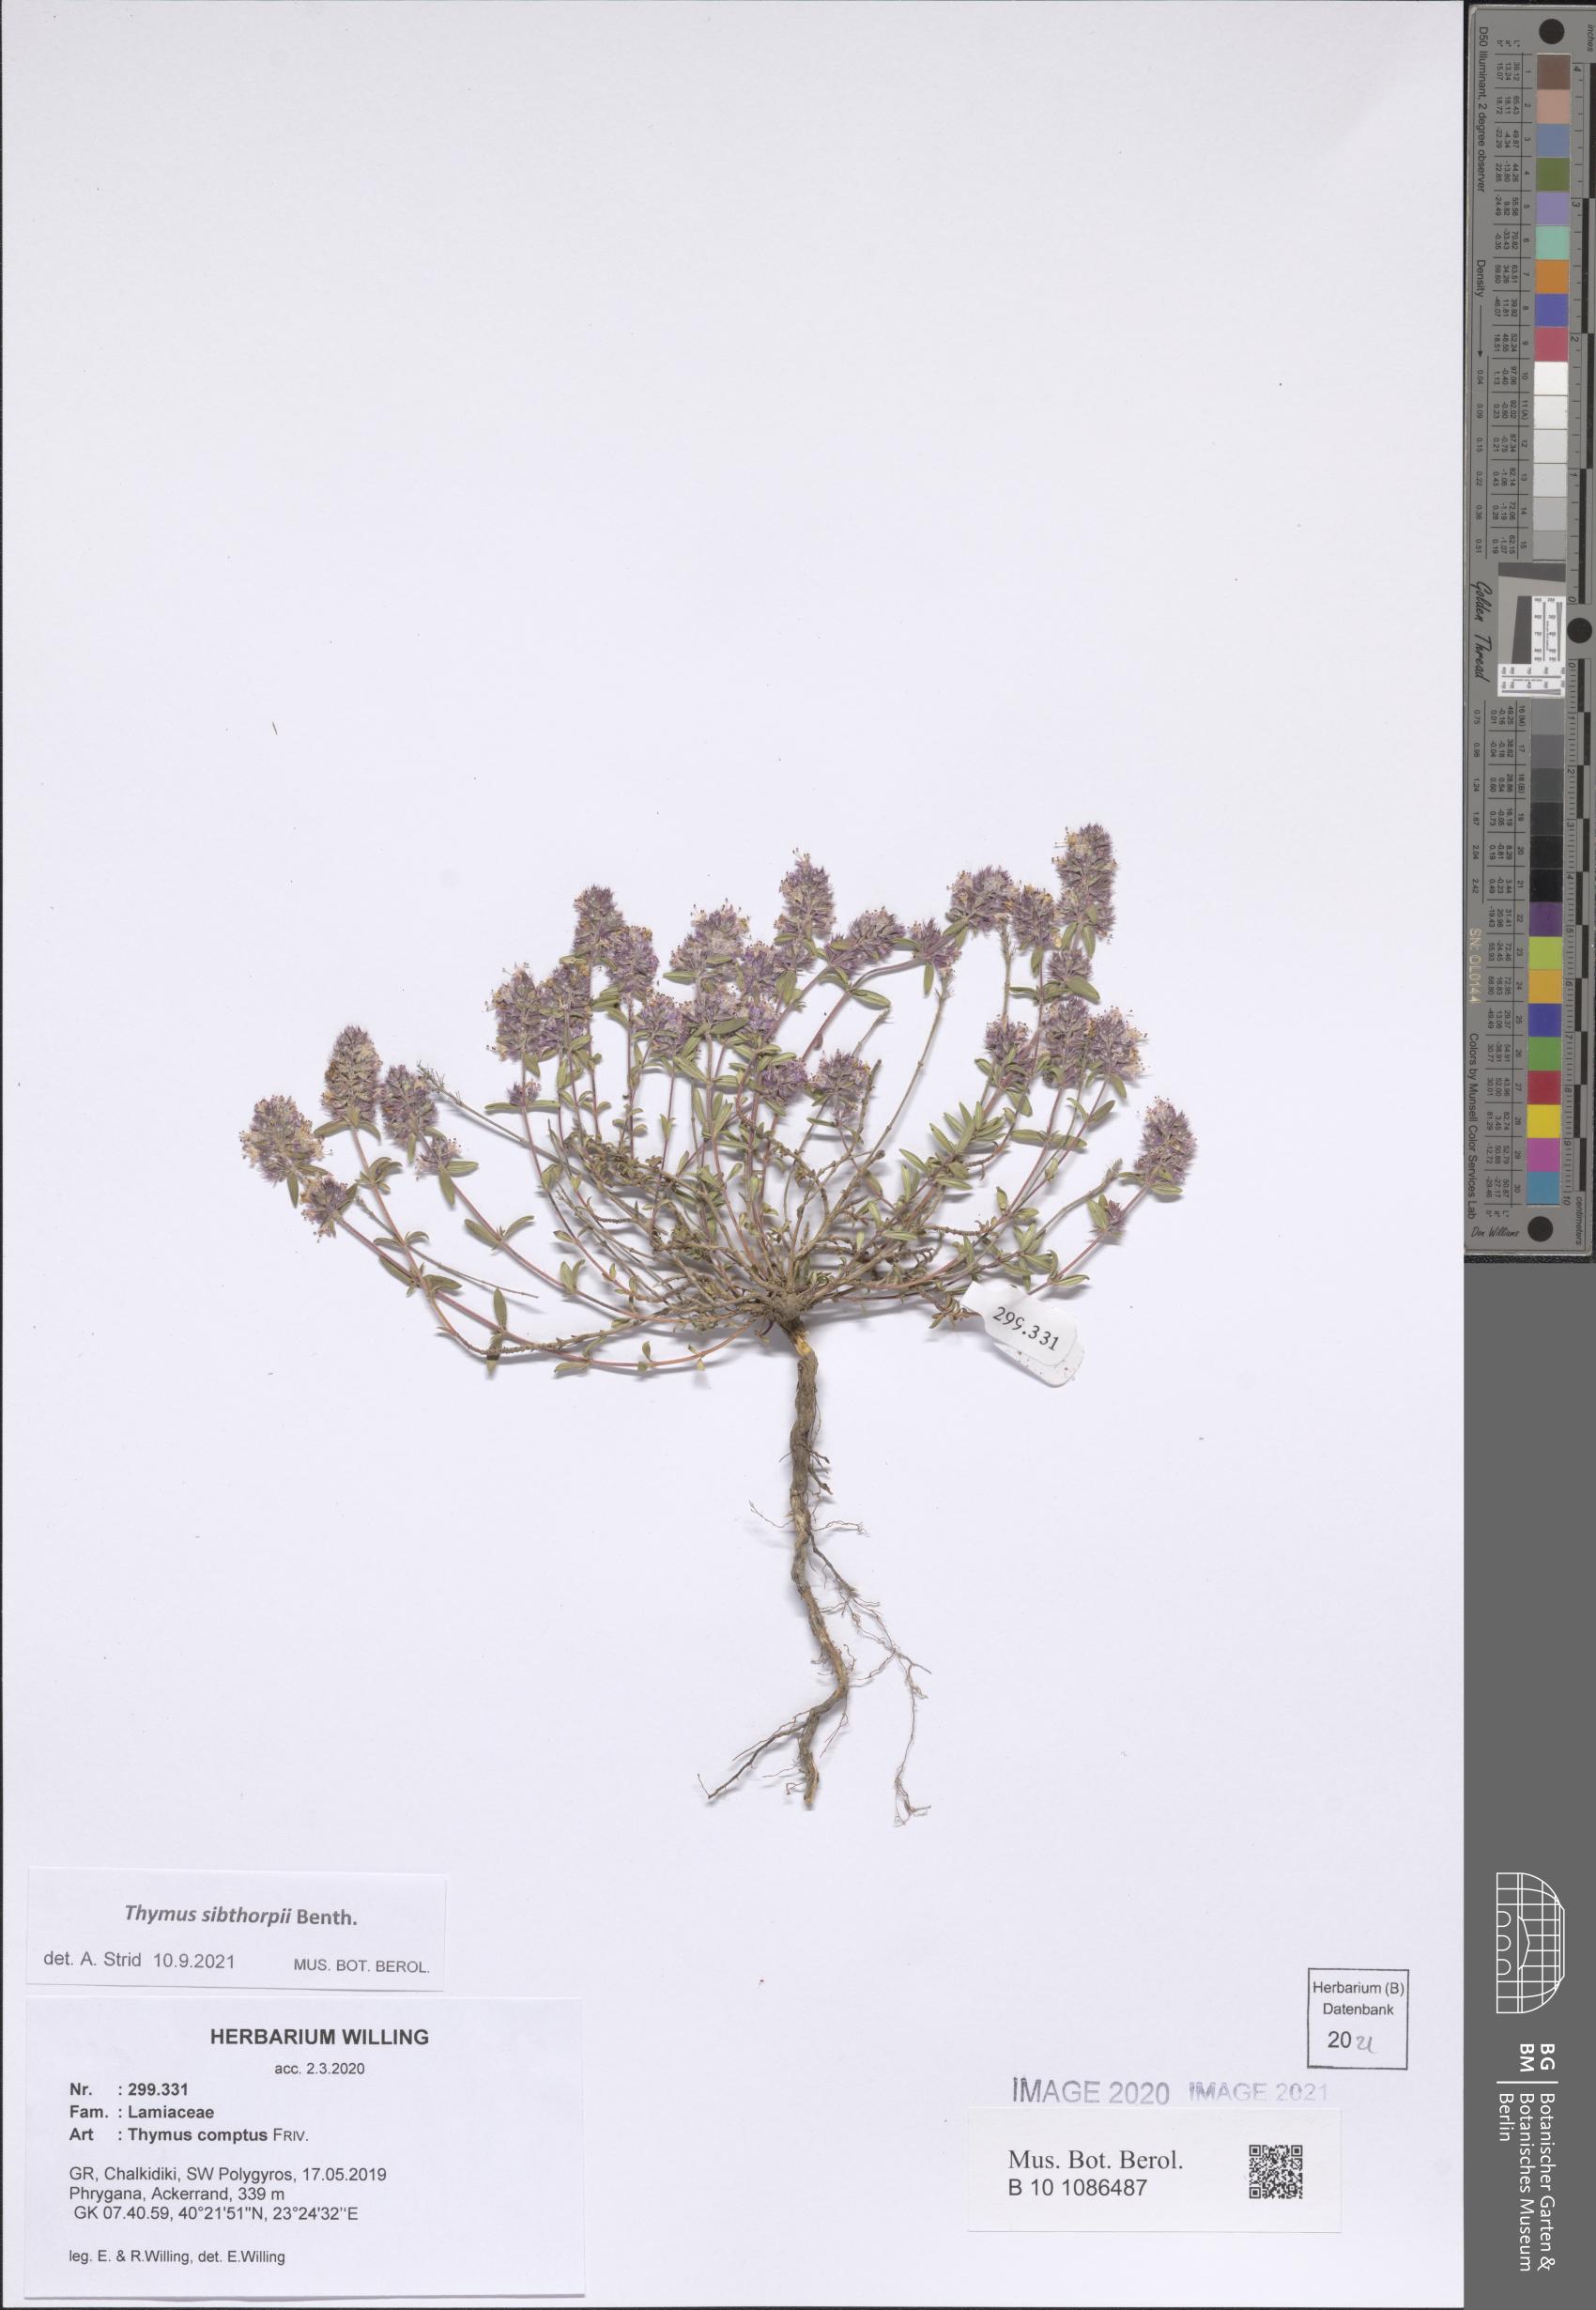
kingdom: Plantae
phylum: Tracheophyta
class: Magnoliopsida
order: Lamiales
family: Lamiaceae
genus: Thymus
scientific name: Thymus sibthorpii
